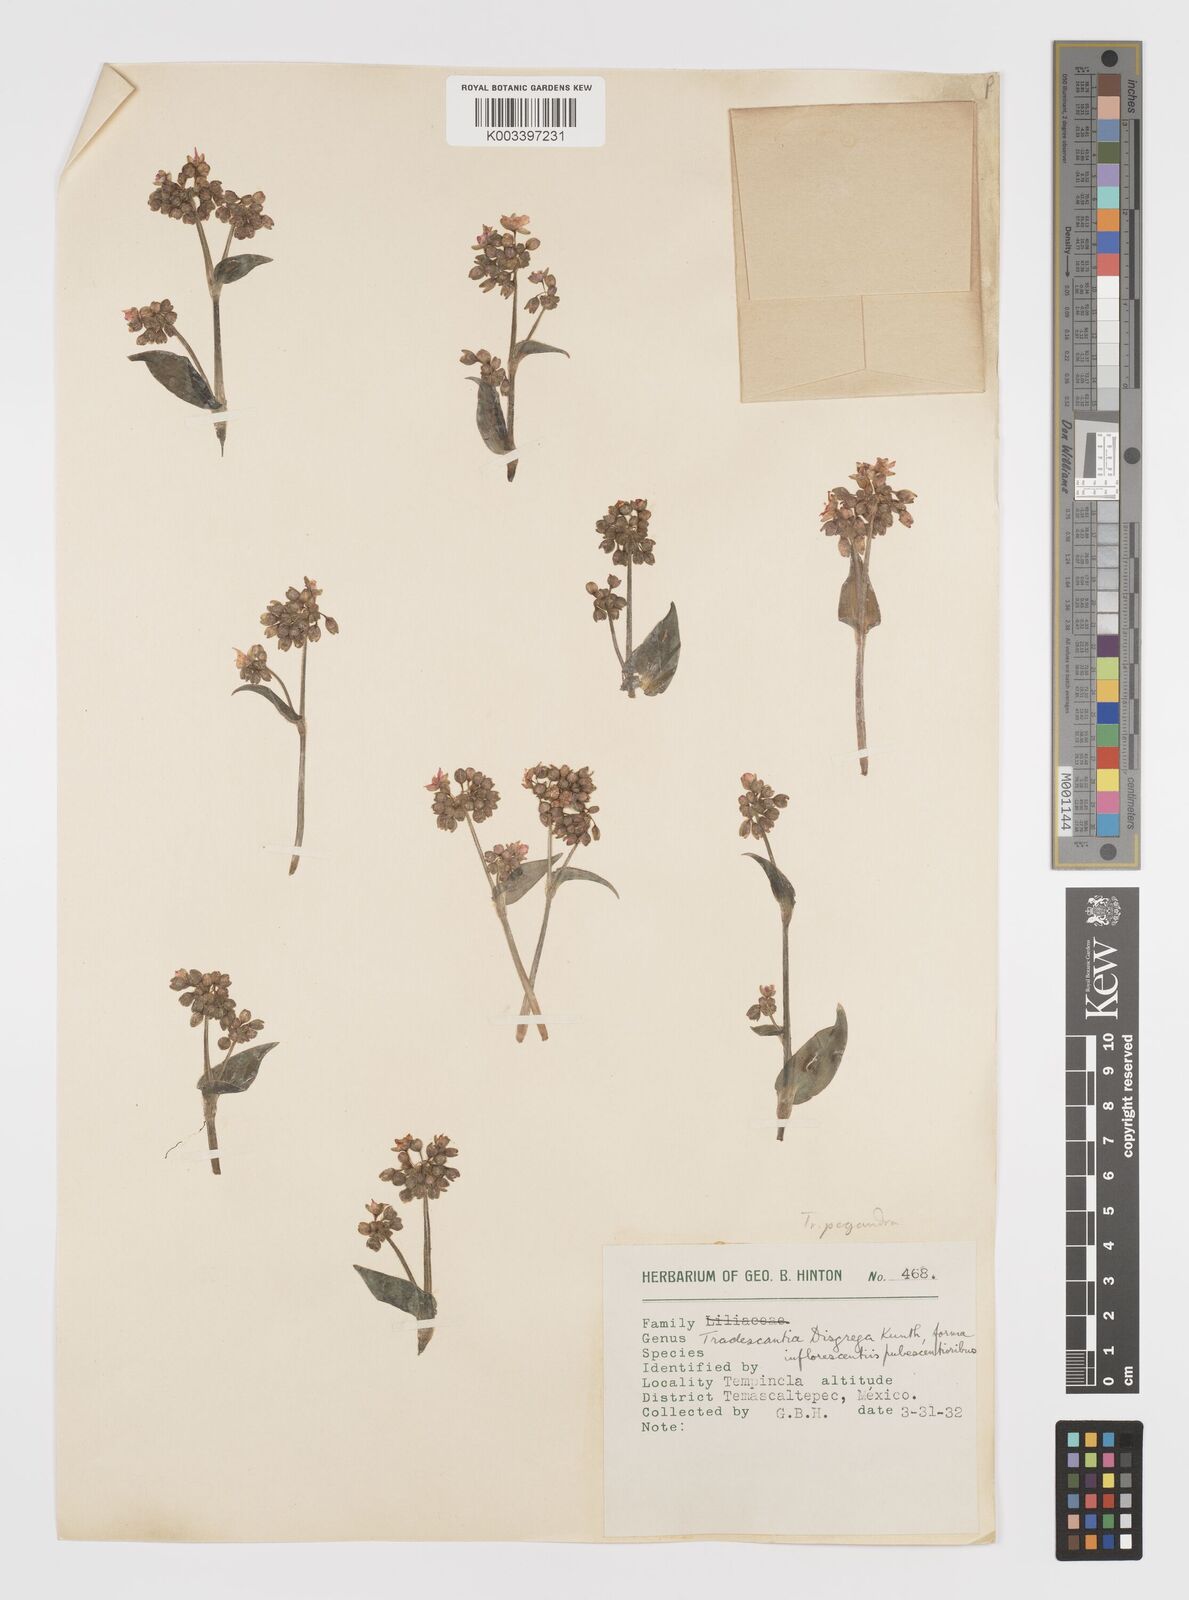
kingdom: Plantae
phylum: Tracheophyta
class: Liliopsida
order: Commelinales
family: Commelinaceae
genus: Callisia
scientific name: Callisia disgrega
